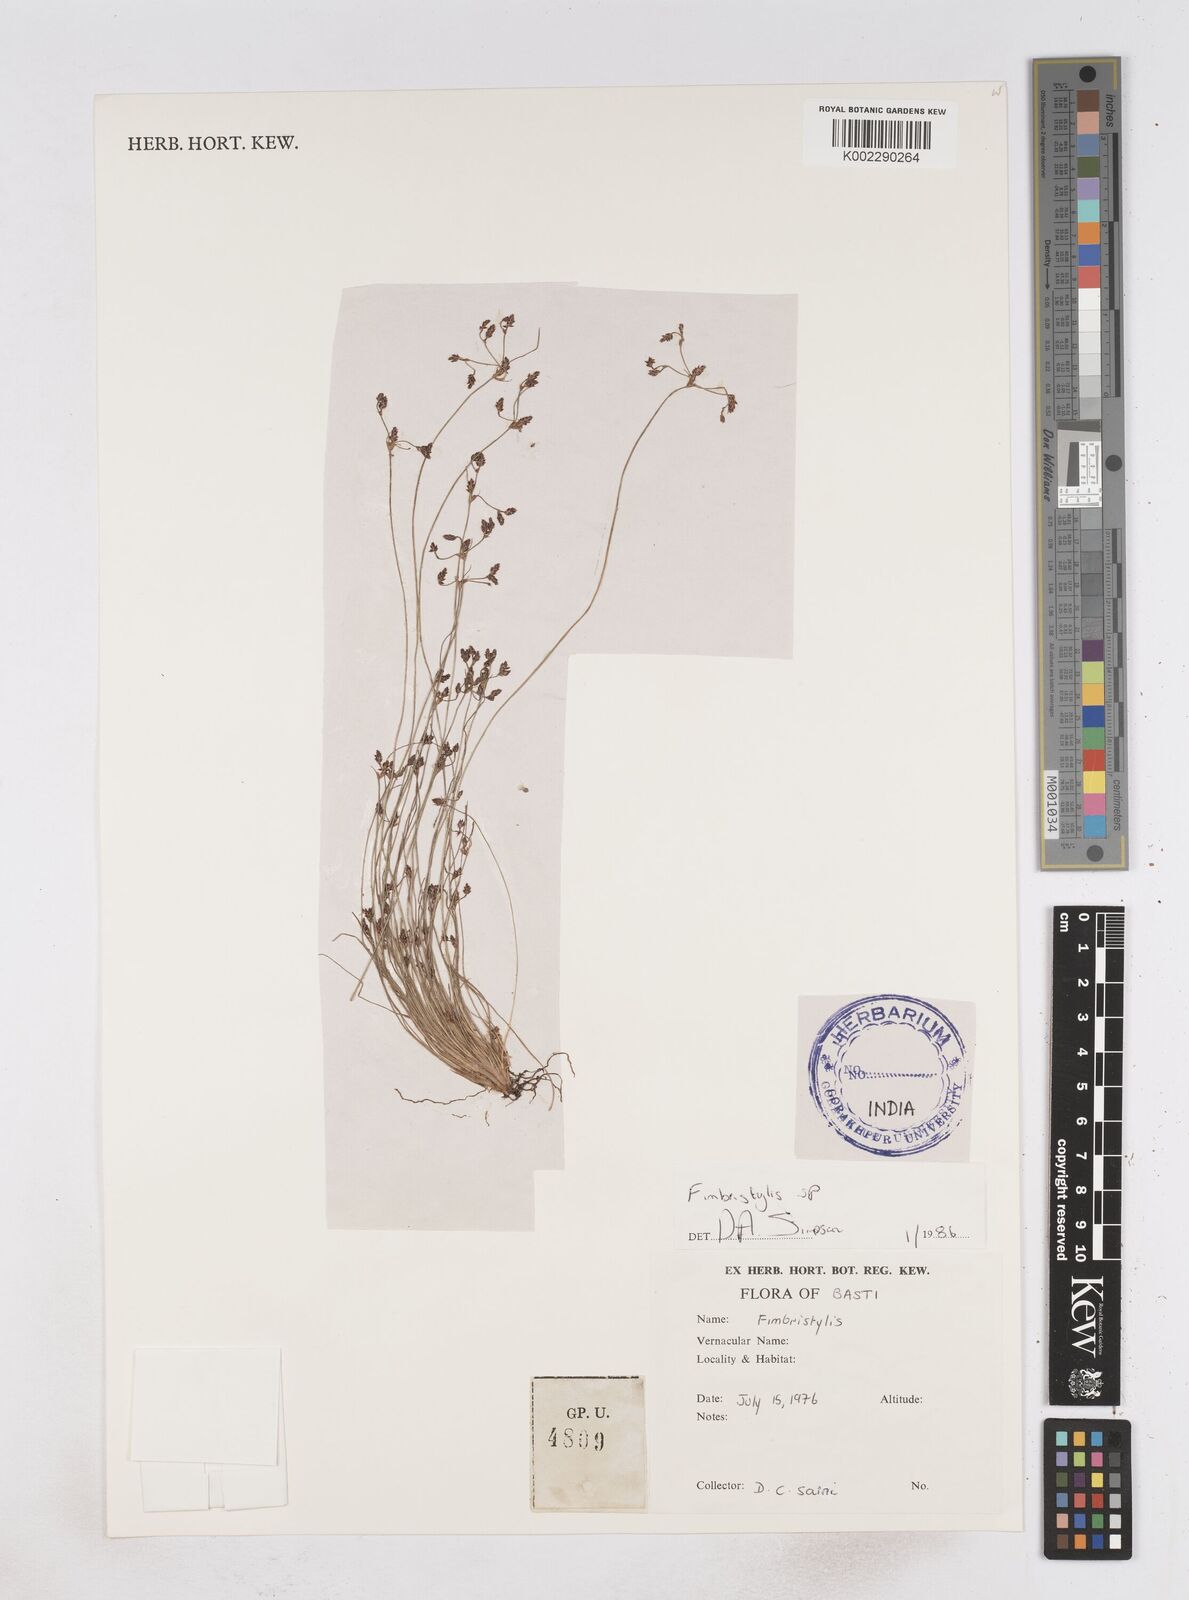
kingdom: Plantae
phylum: Tracheophyta
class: Liliopsida
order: Poales
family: Cyperaceae
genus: Fimbristylis
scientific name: Fimbristylis
